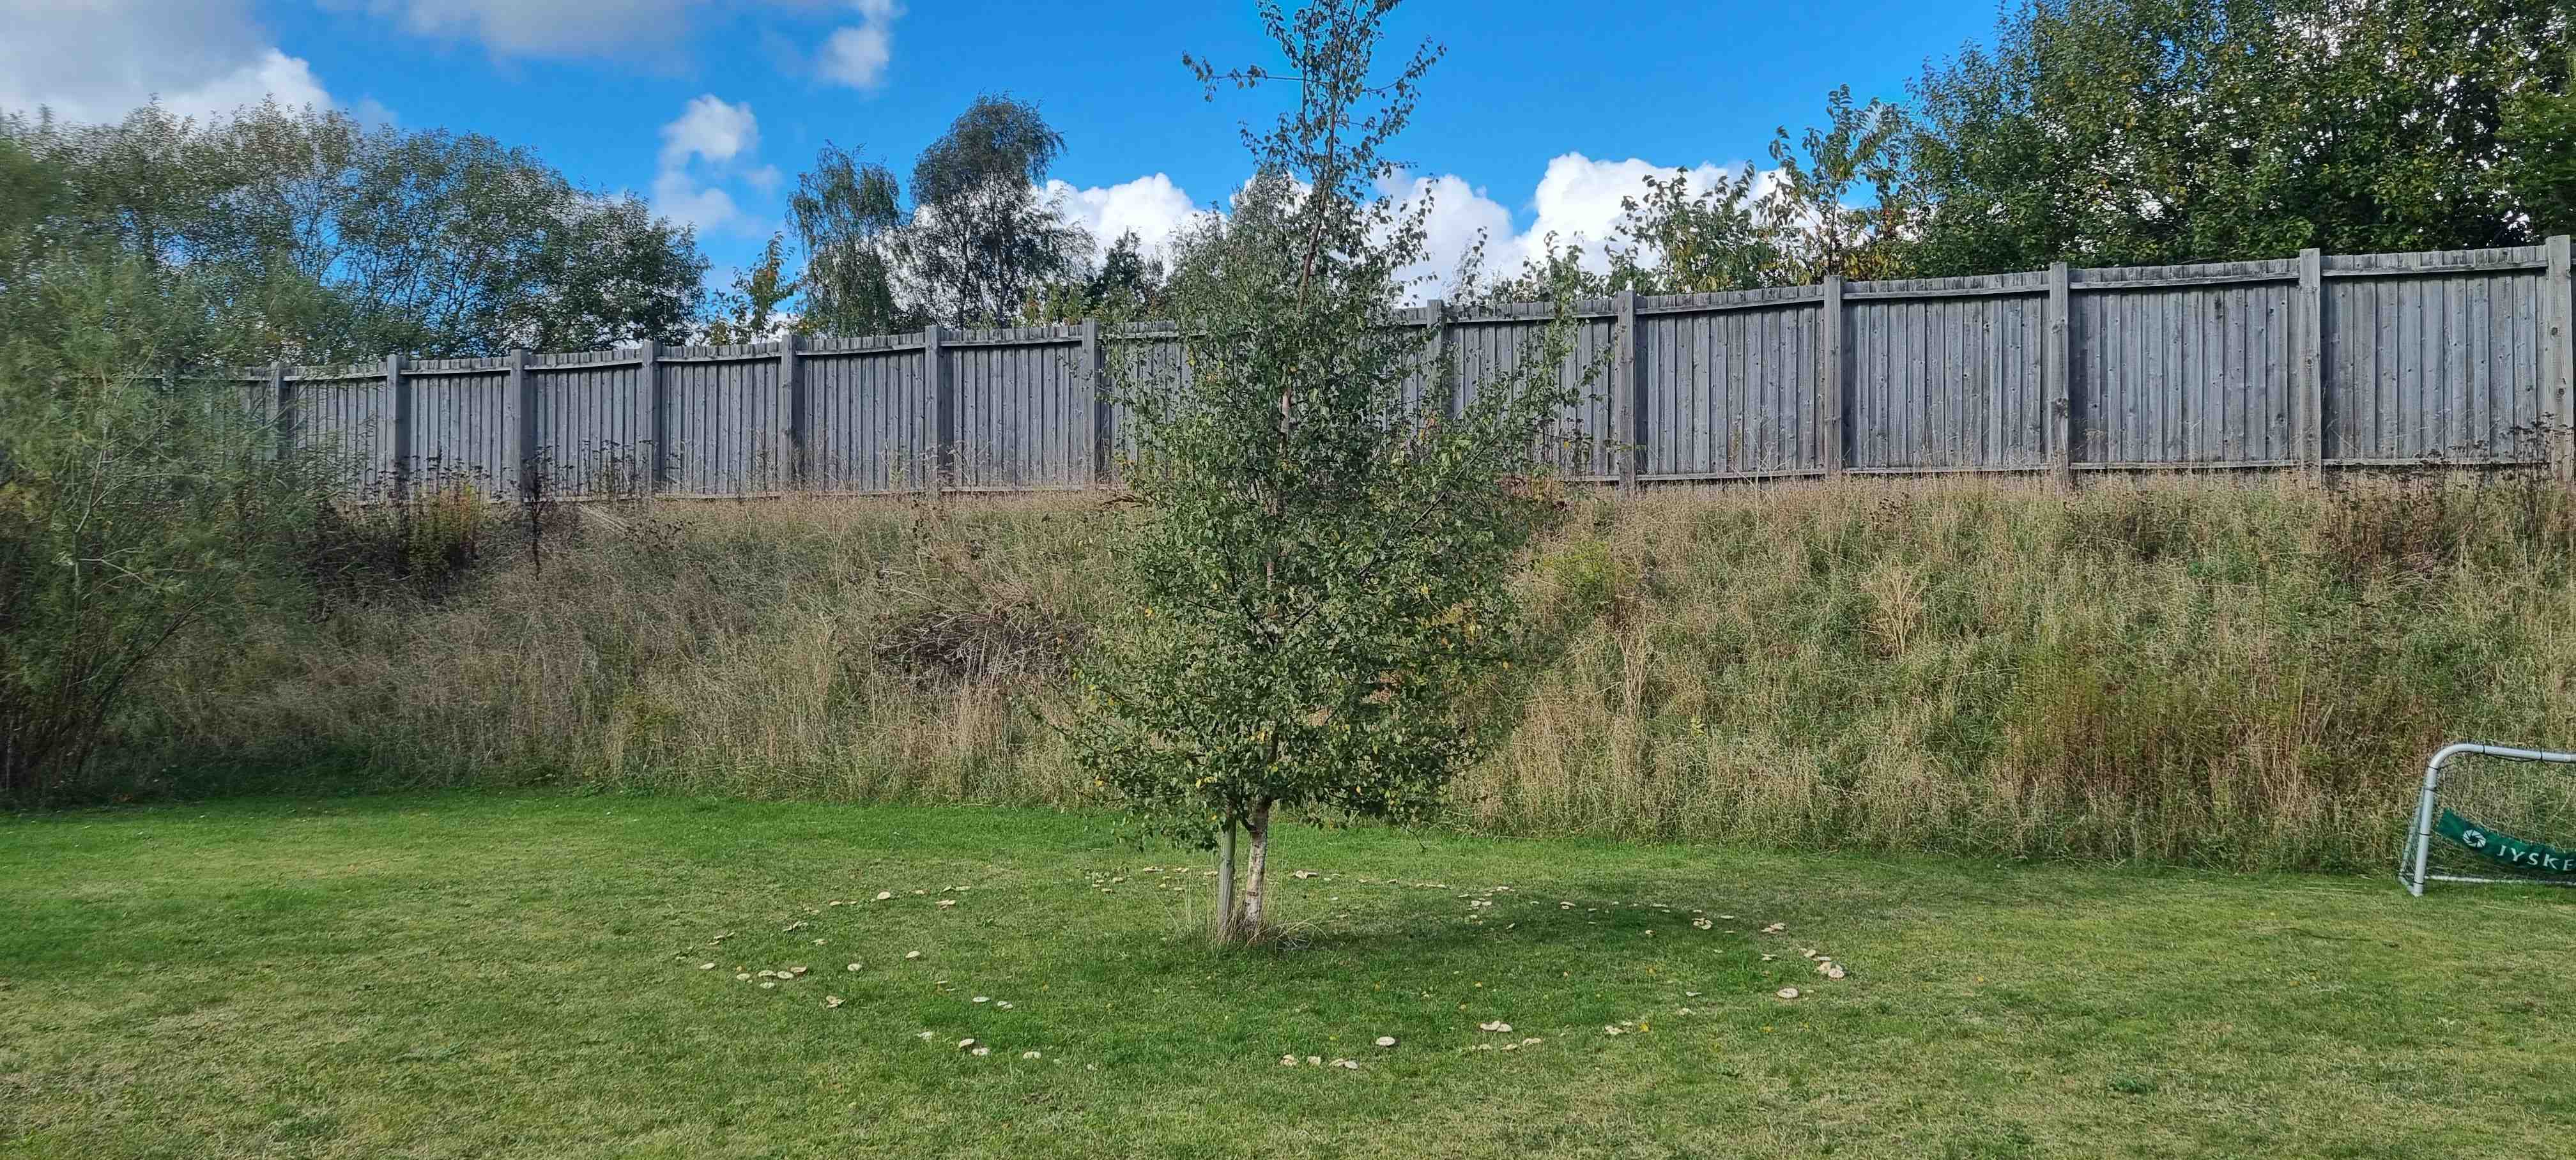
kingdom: Fungi
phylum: Basidiomycota
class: Agaricomycetes
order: Russulales
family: Russulaceae
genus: Lactarius
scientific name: Lactarius pubescens
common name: dunet mælkehat
